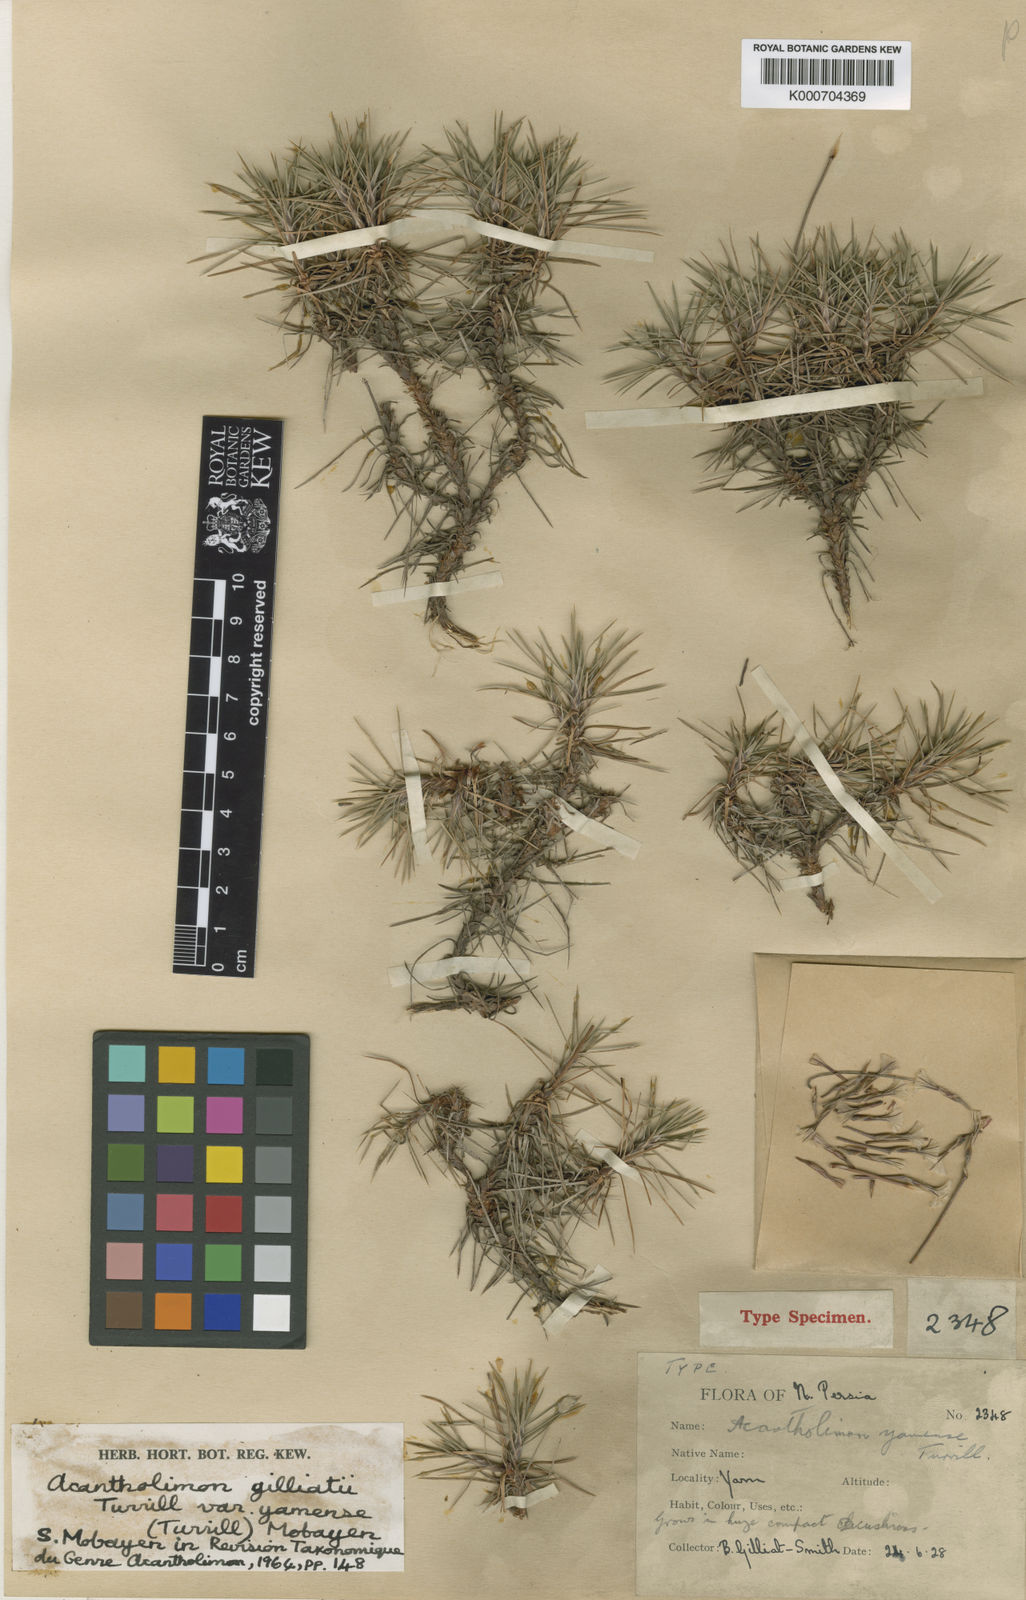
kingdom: Plantae
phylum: Tracheophyta
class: Magnoliopsida
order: Caryophyllales
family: Plumbaginaceae
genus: Acantholimon
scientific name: Acantholimon yamense
